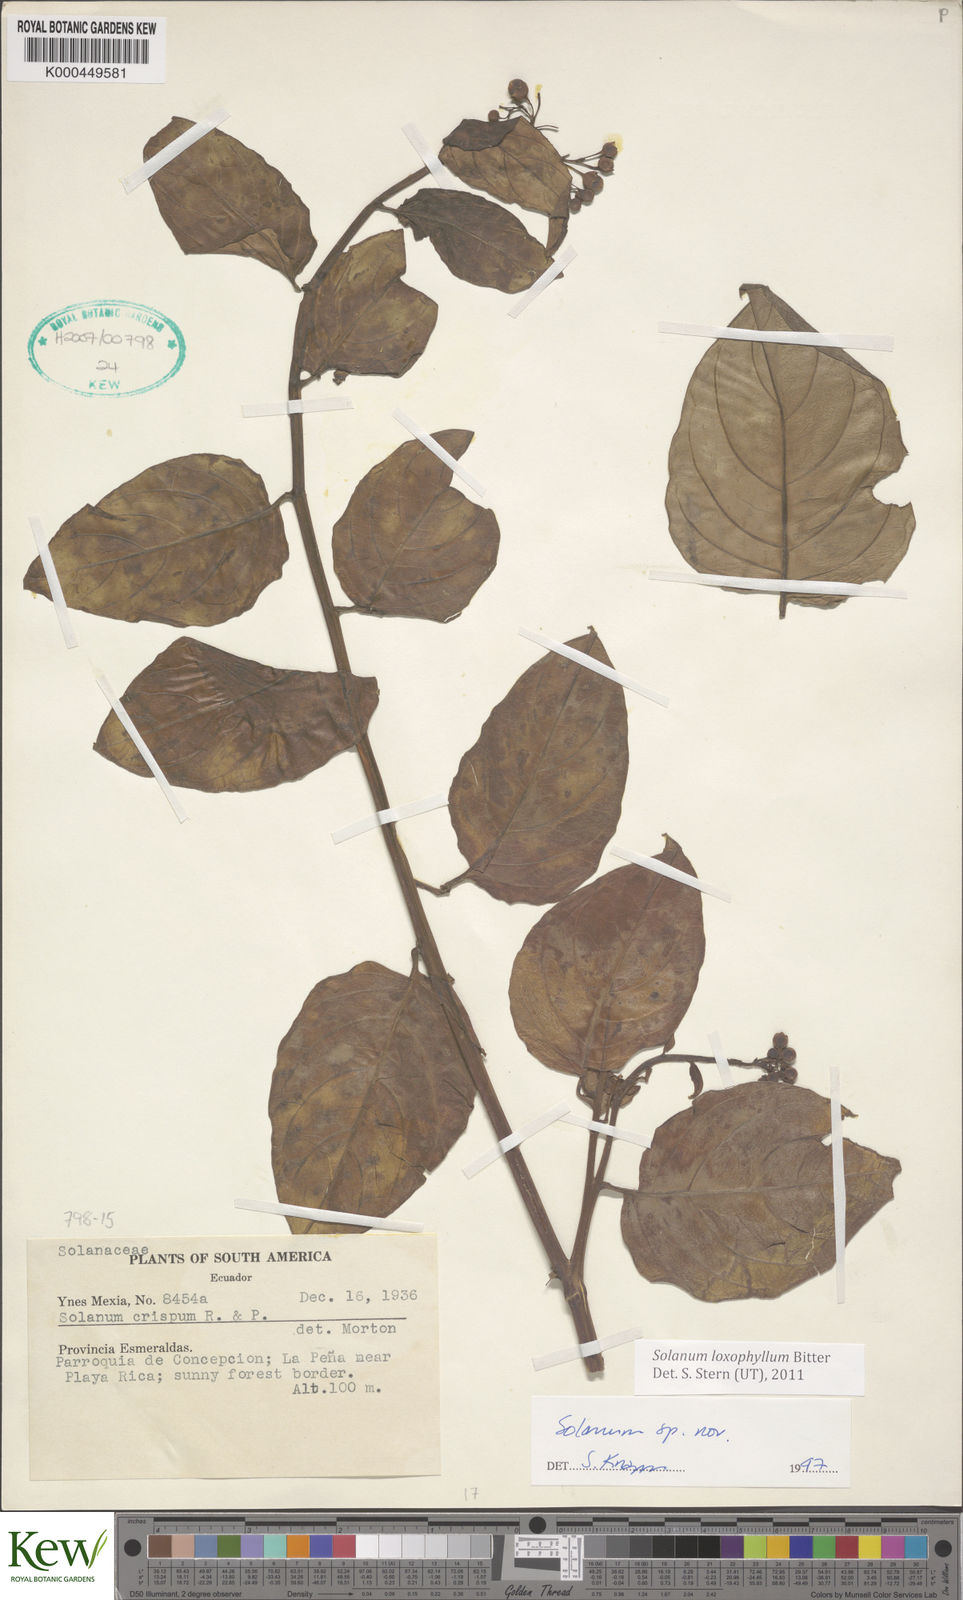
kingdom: Plantae
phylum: Tracheophyta
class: Magnoliopsida
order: Solanales
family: Solanaceae
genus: Solanum
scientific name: Solanum loxophyllum
